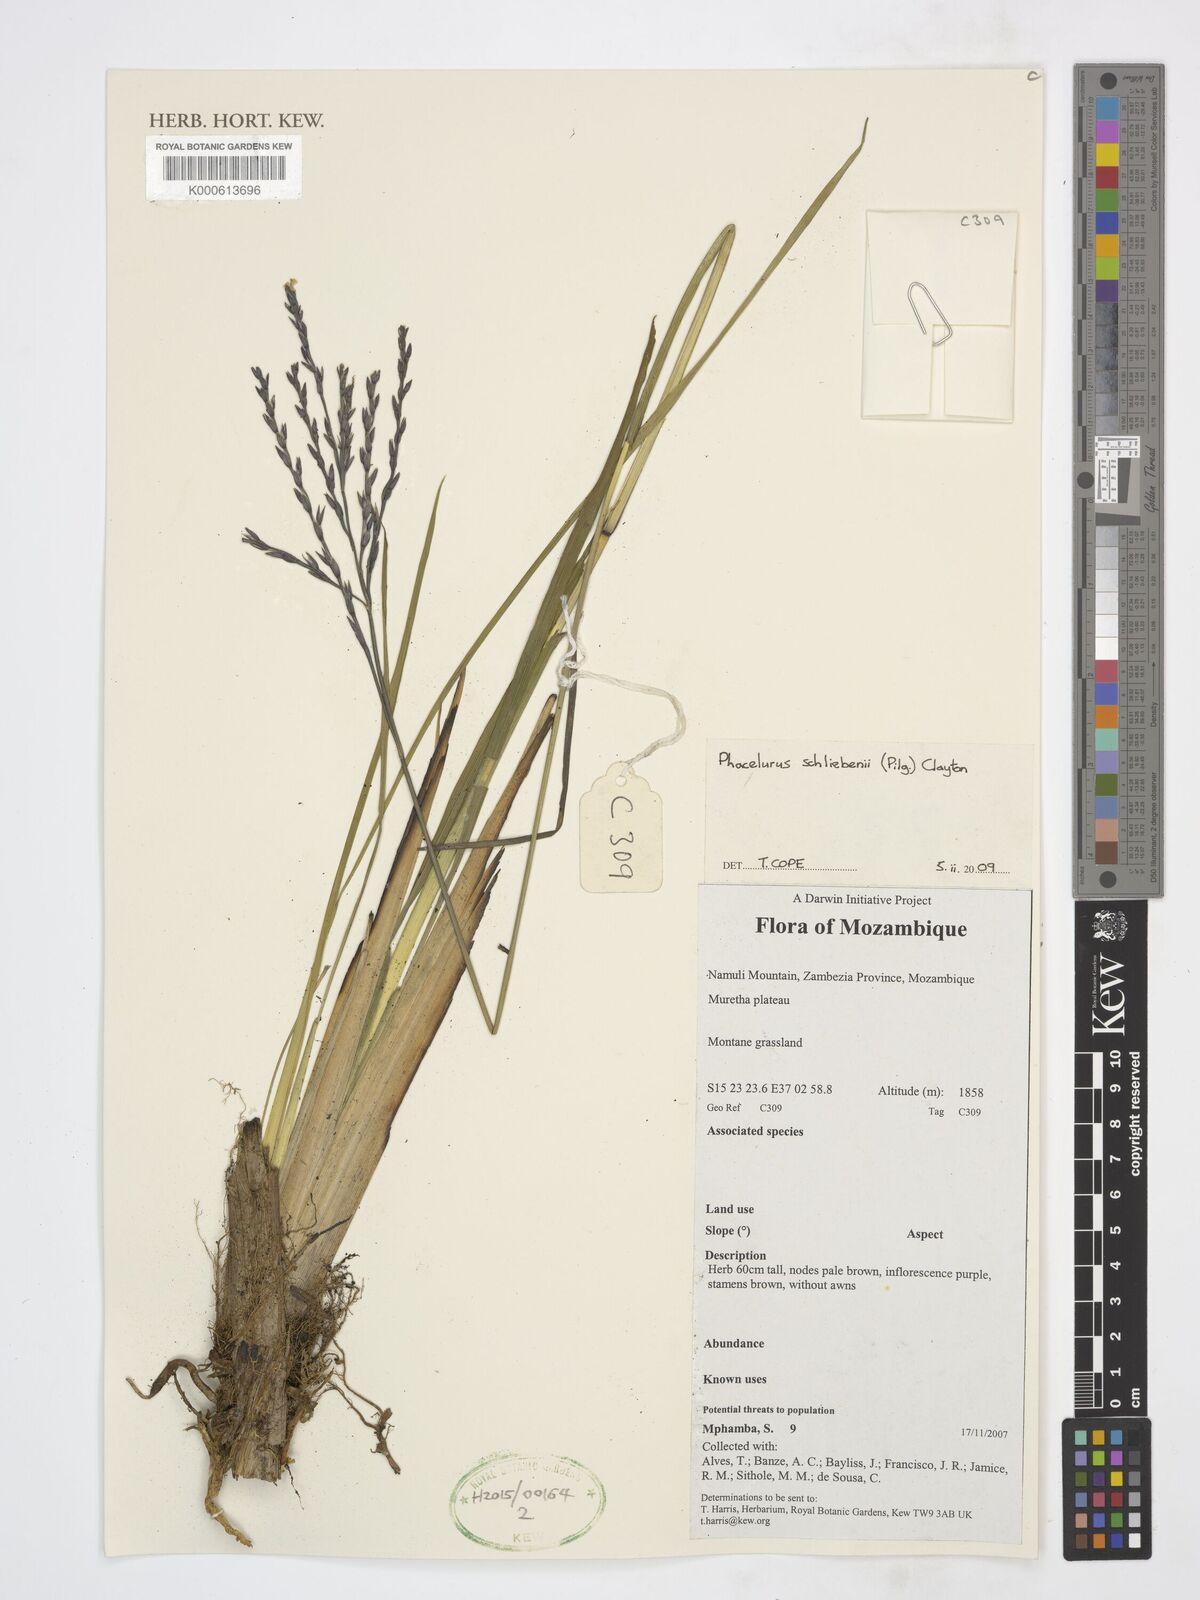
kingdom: Plantae
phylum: Tracheophyta
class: Liliopsida
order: Poales
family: Poaceae
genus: Thyrsia
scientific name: Thyrsia schliebenii
